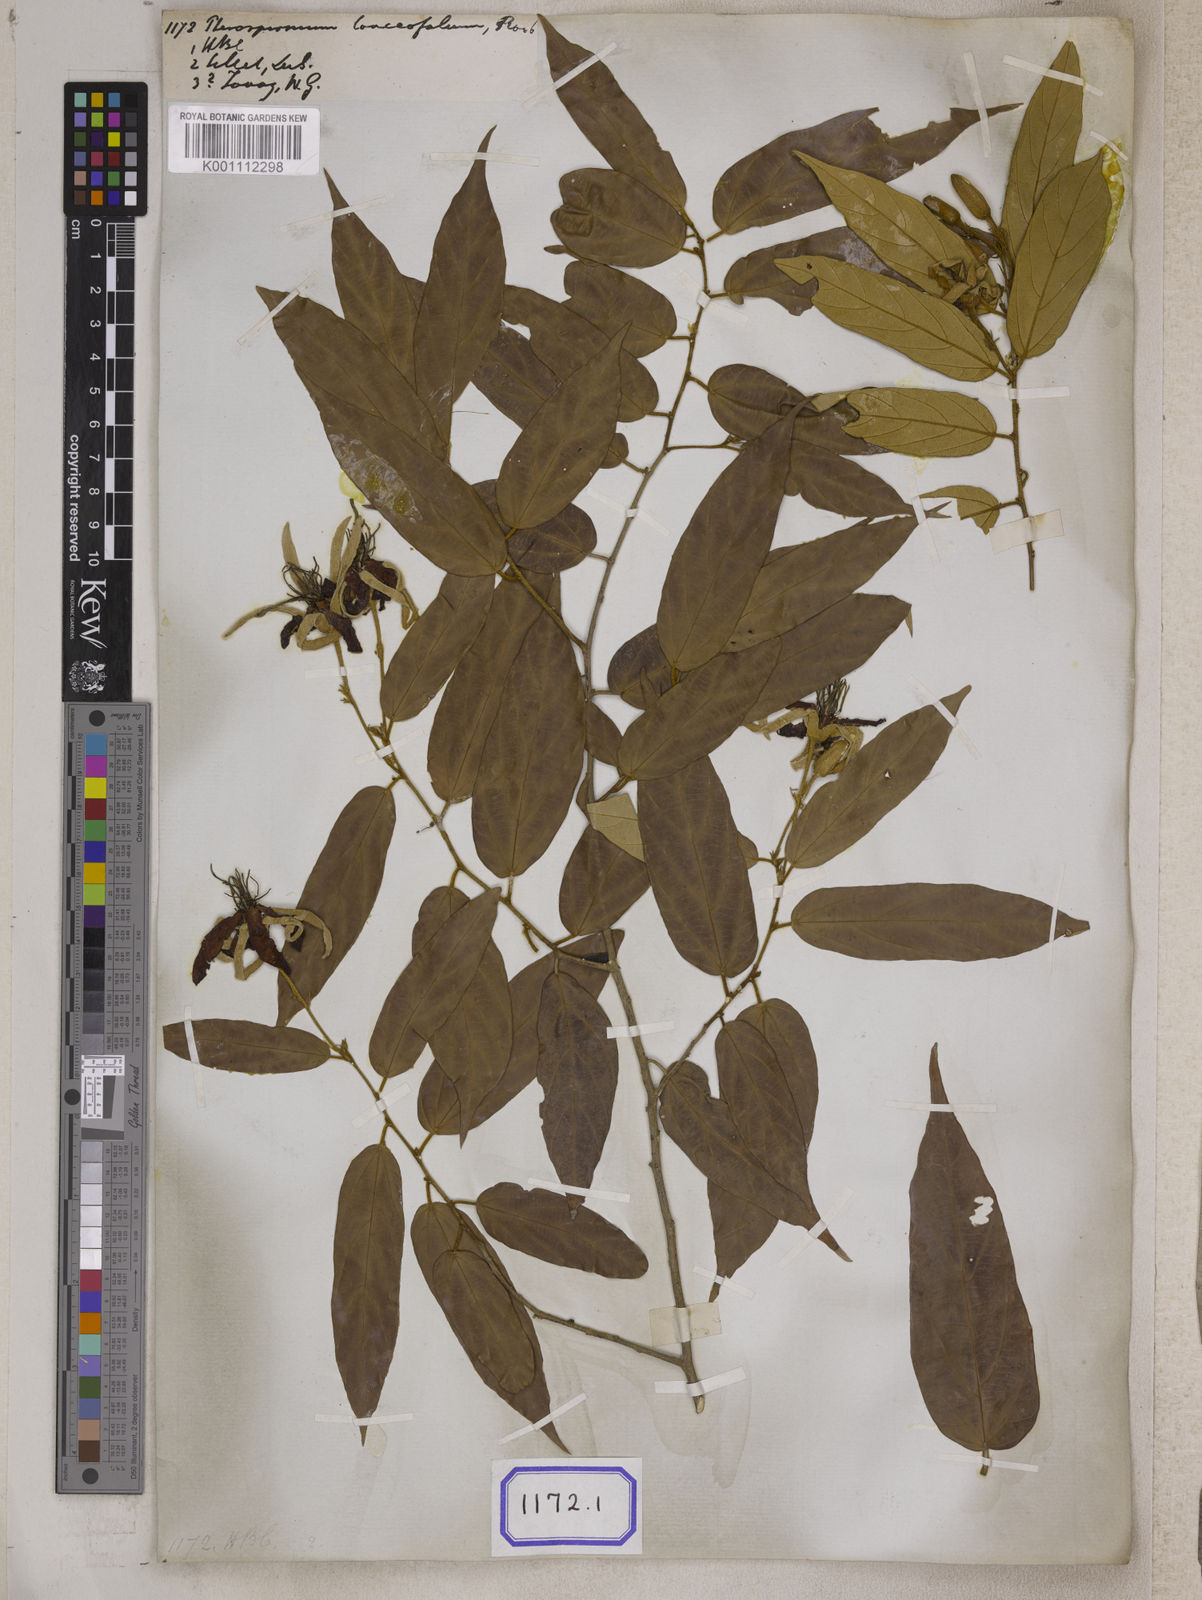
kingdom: Plantae
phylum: Tracheophyta
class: Magnoliopsida
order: Malvales
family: Malvaceae
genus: Pterospermum
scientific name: Pterospermum
